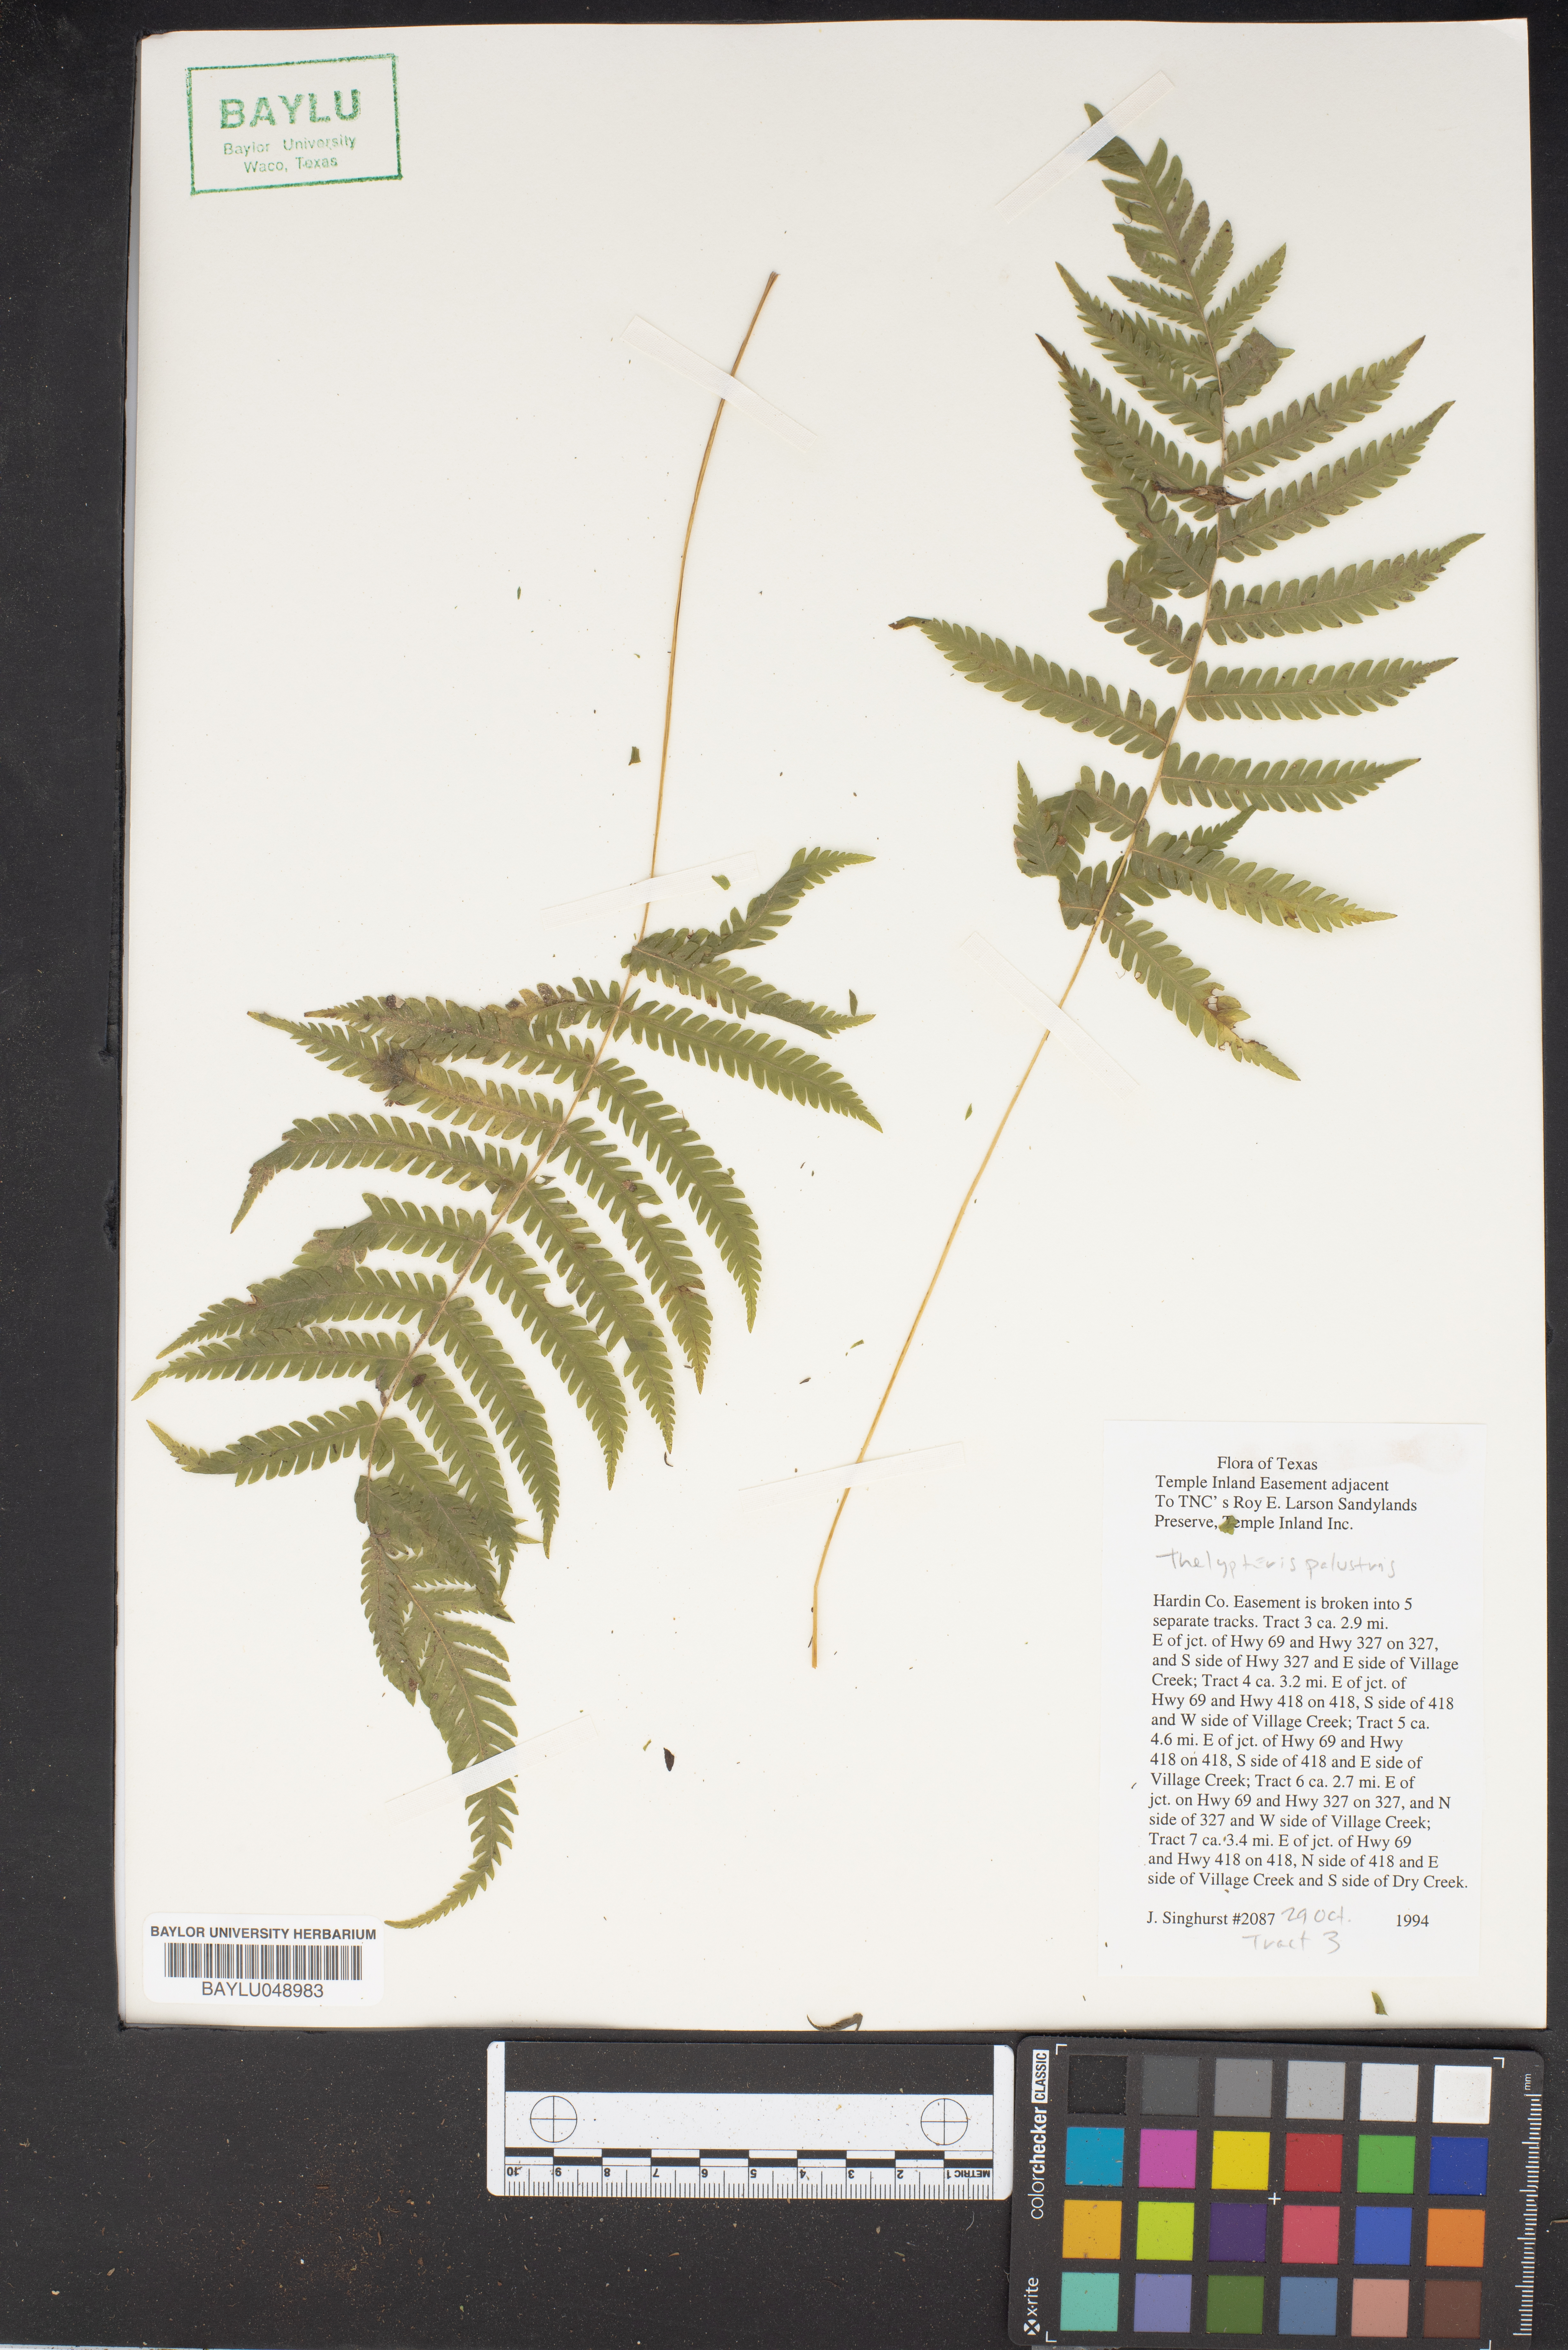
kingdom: Plantae
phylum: Tracheophyta
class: Polypodiopsida
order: Polypodiales
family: Thelypteridaceae
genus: Thelypteris
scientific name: Thelypteris palustris
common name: Marsh fern
